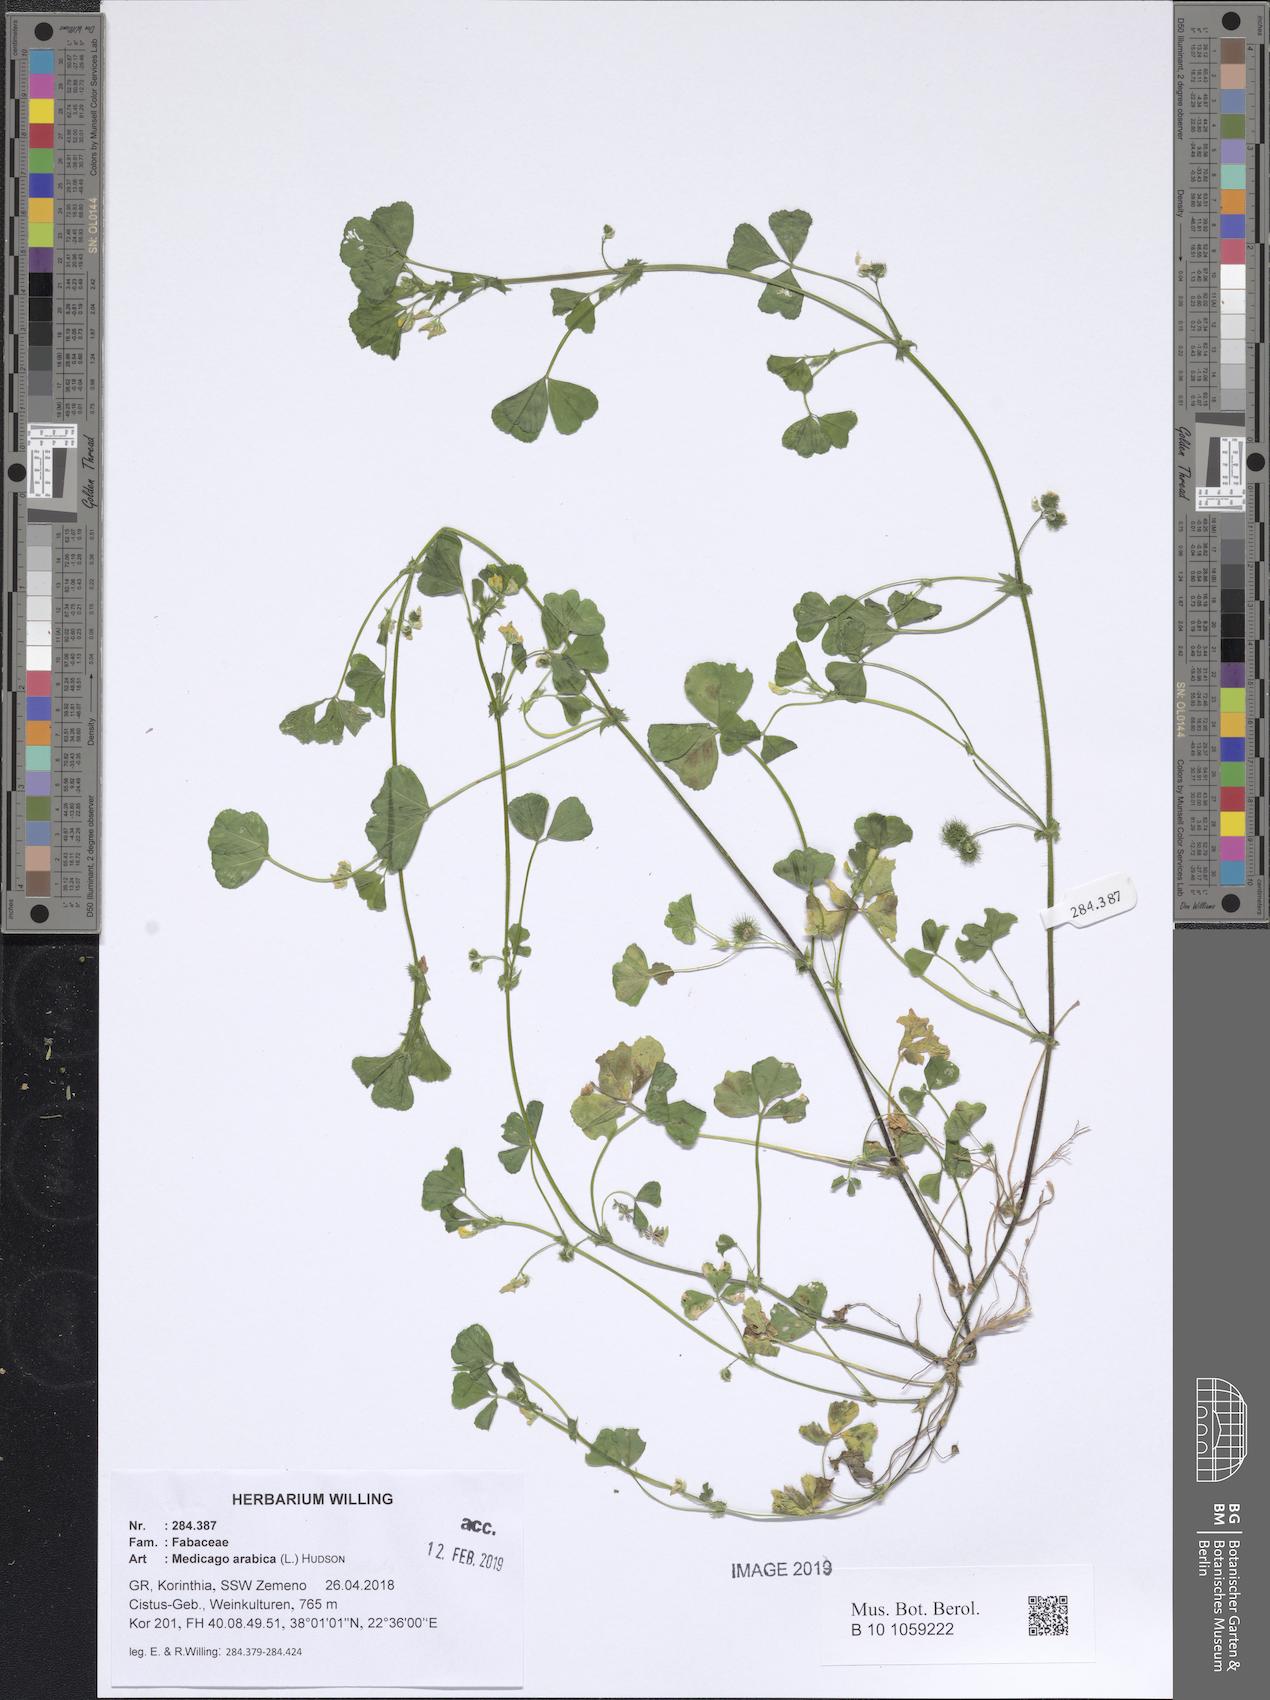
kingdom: Plantae
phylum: Tracheophyta
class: Magnoliopsida
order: Fabales
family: Fabaceae
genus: Medicago
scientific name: Medicago arabica
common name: Spotted medick
